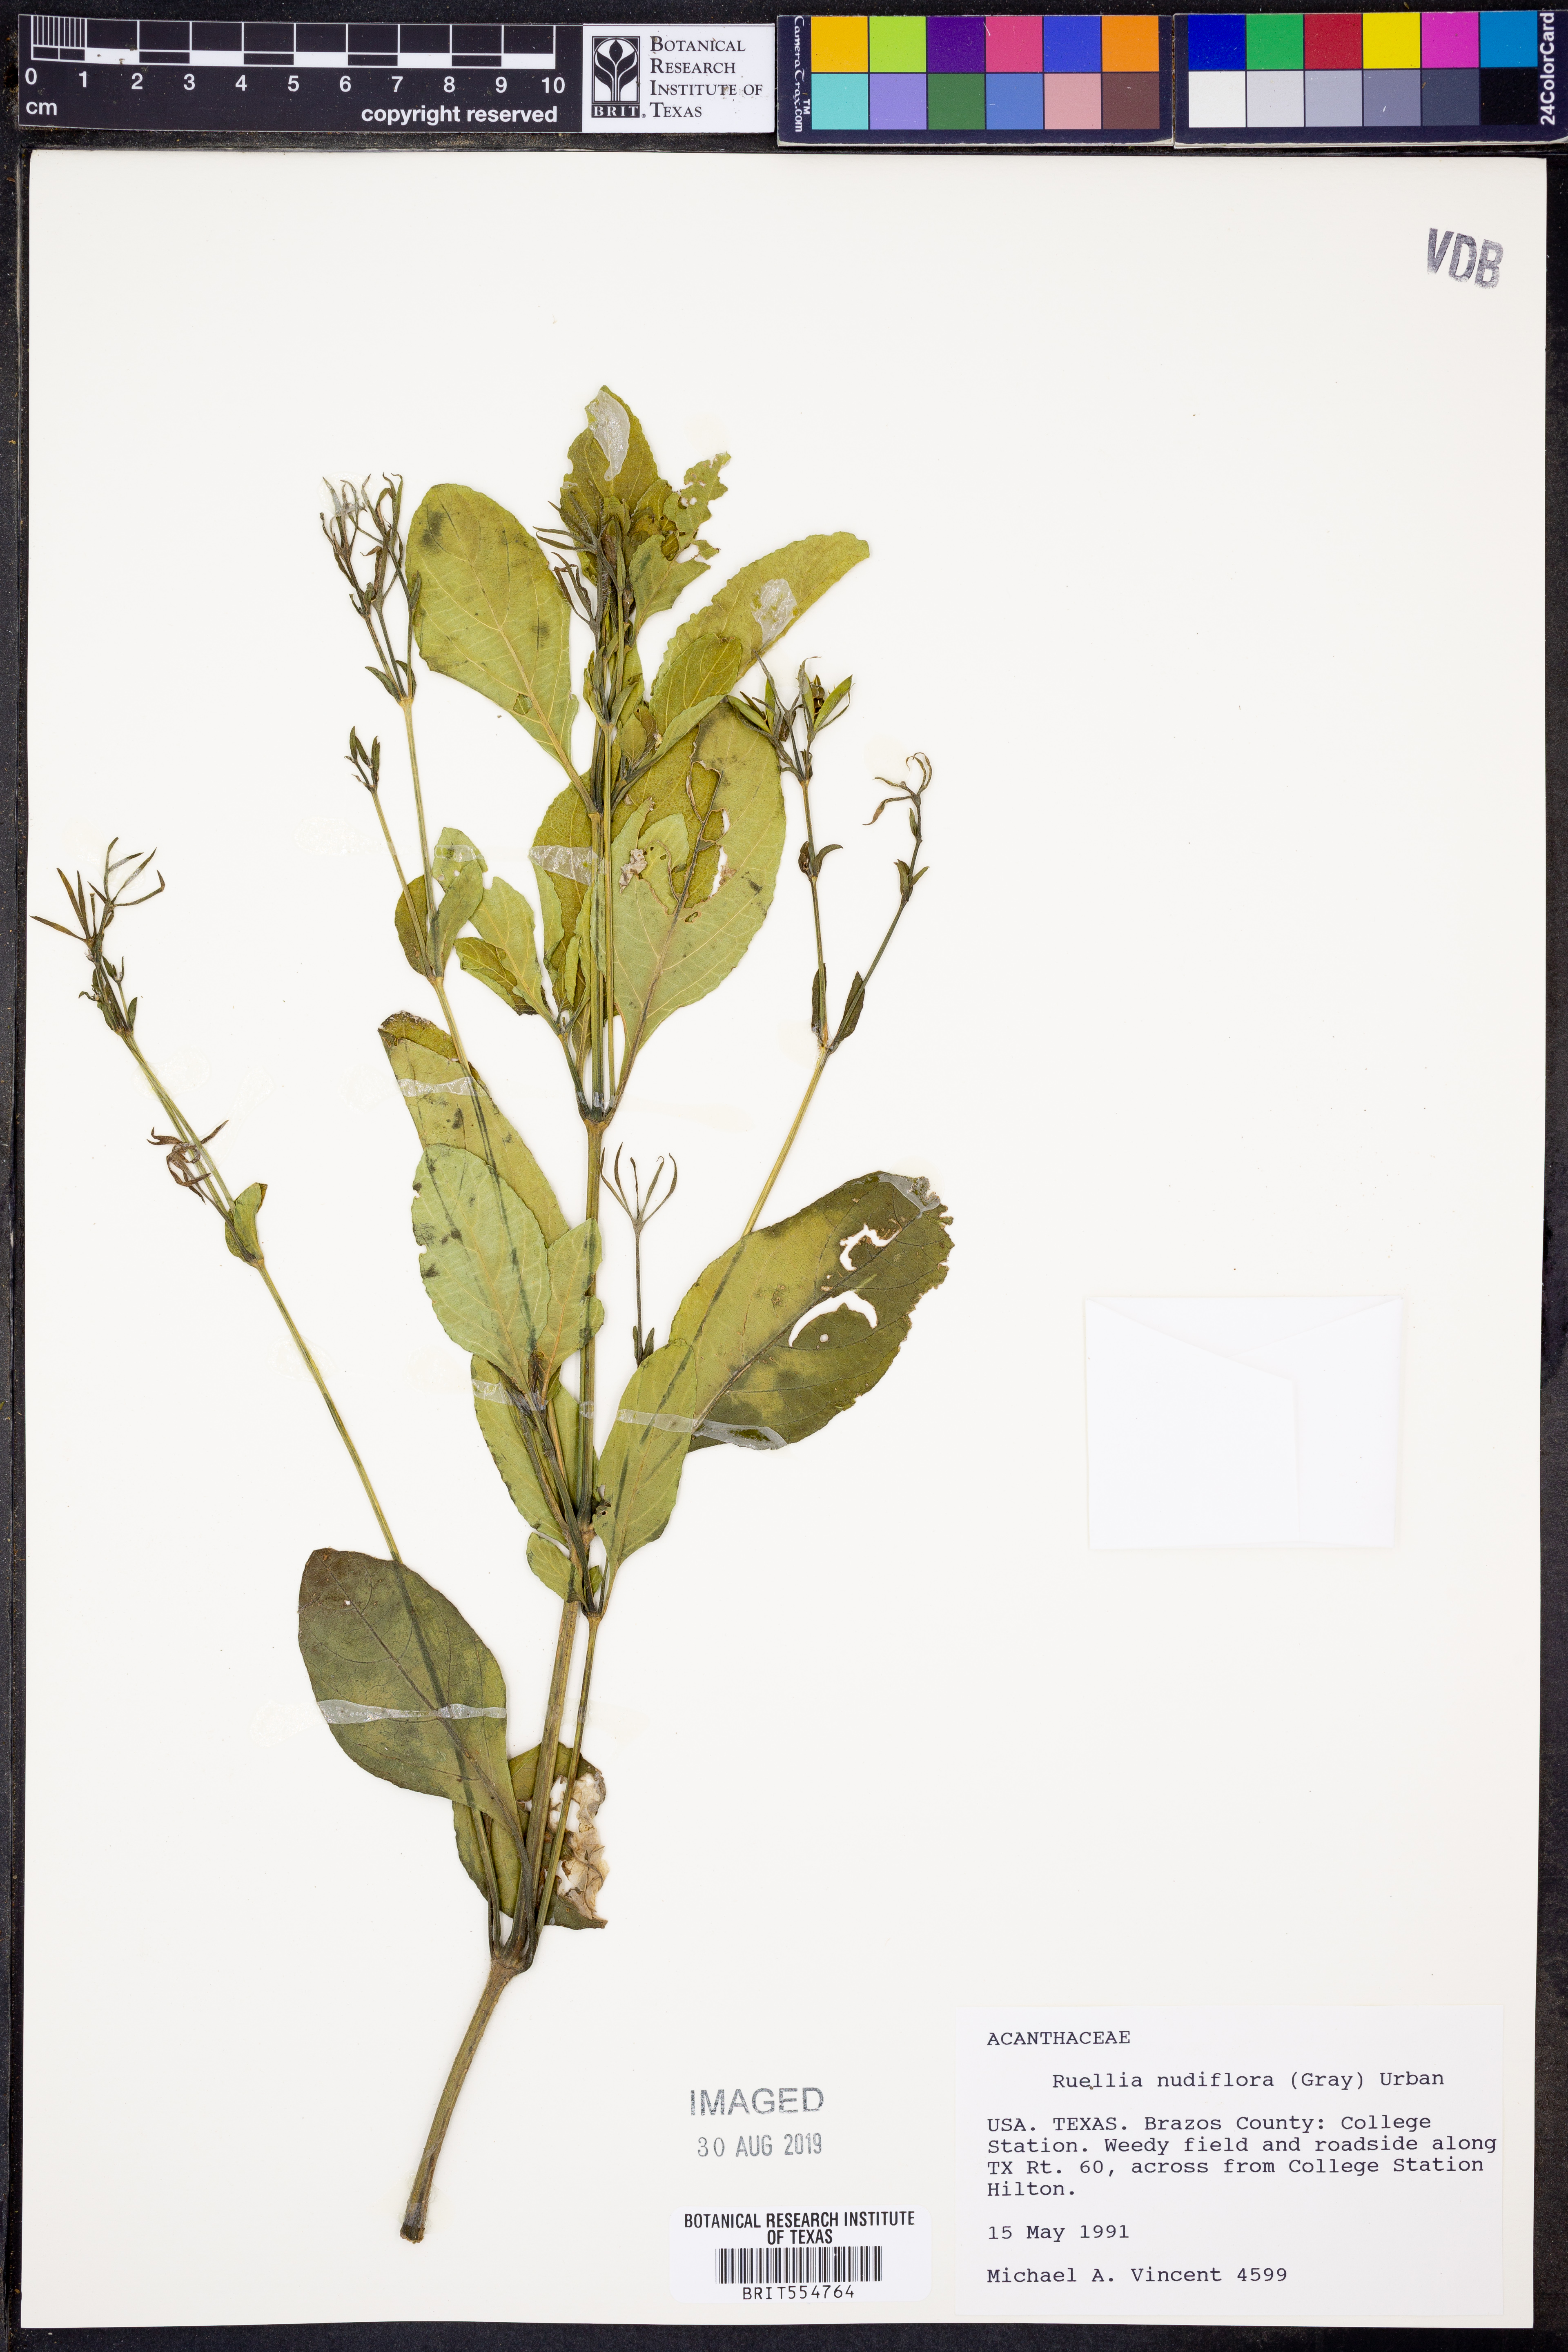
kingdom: Plantae
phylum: Tracheophyta
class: Magnoliopsida
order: Lamiales
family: Acanthaceae
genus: Ruellia
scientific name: Ruellia ciliatiflora
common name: Hairyflower wild petunia
